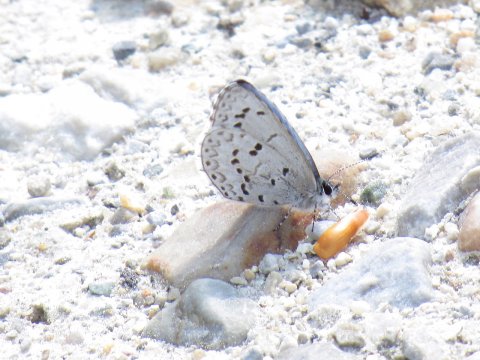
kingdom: Animalia
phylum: Arthropoda
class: Insecta
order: Lepidoptera
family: Lycaenidae
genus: Celastrina
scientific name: Celastrina lucia
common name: Northern Spring Azure
